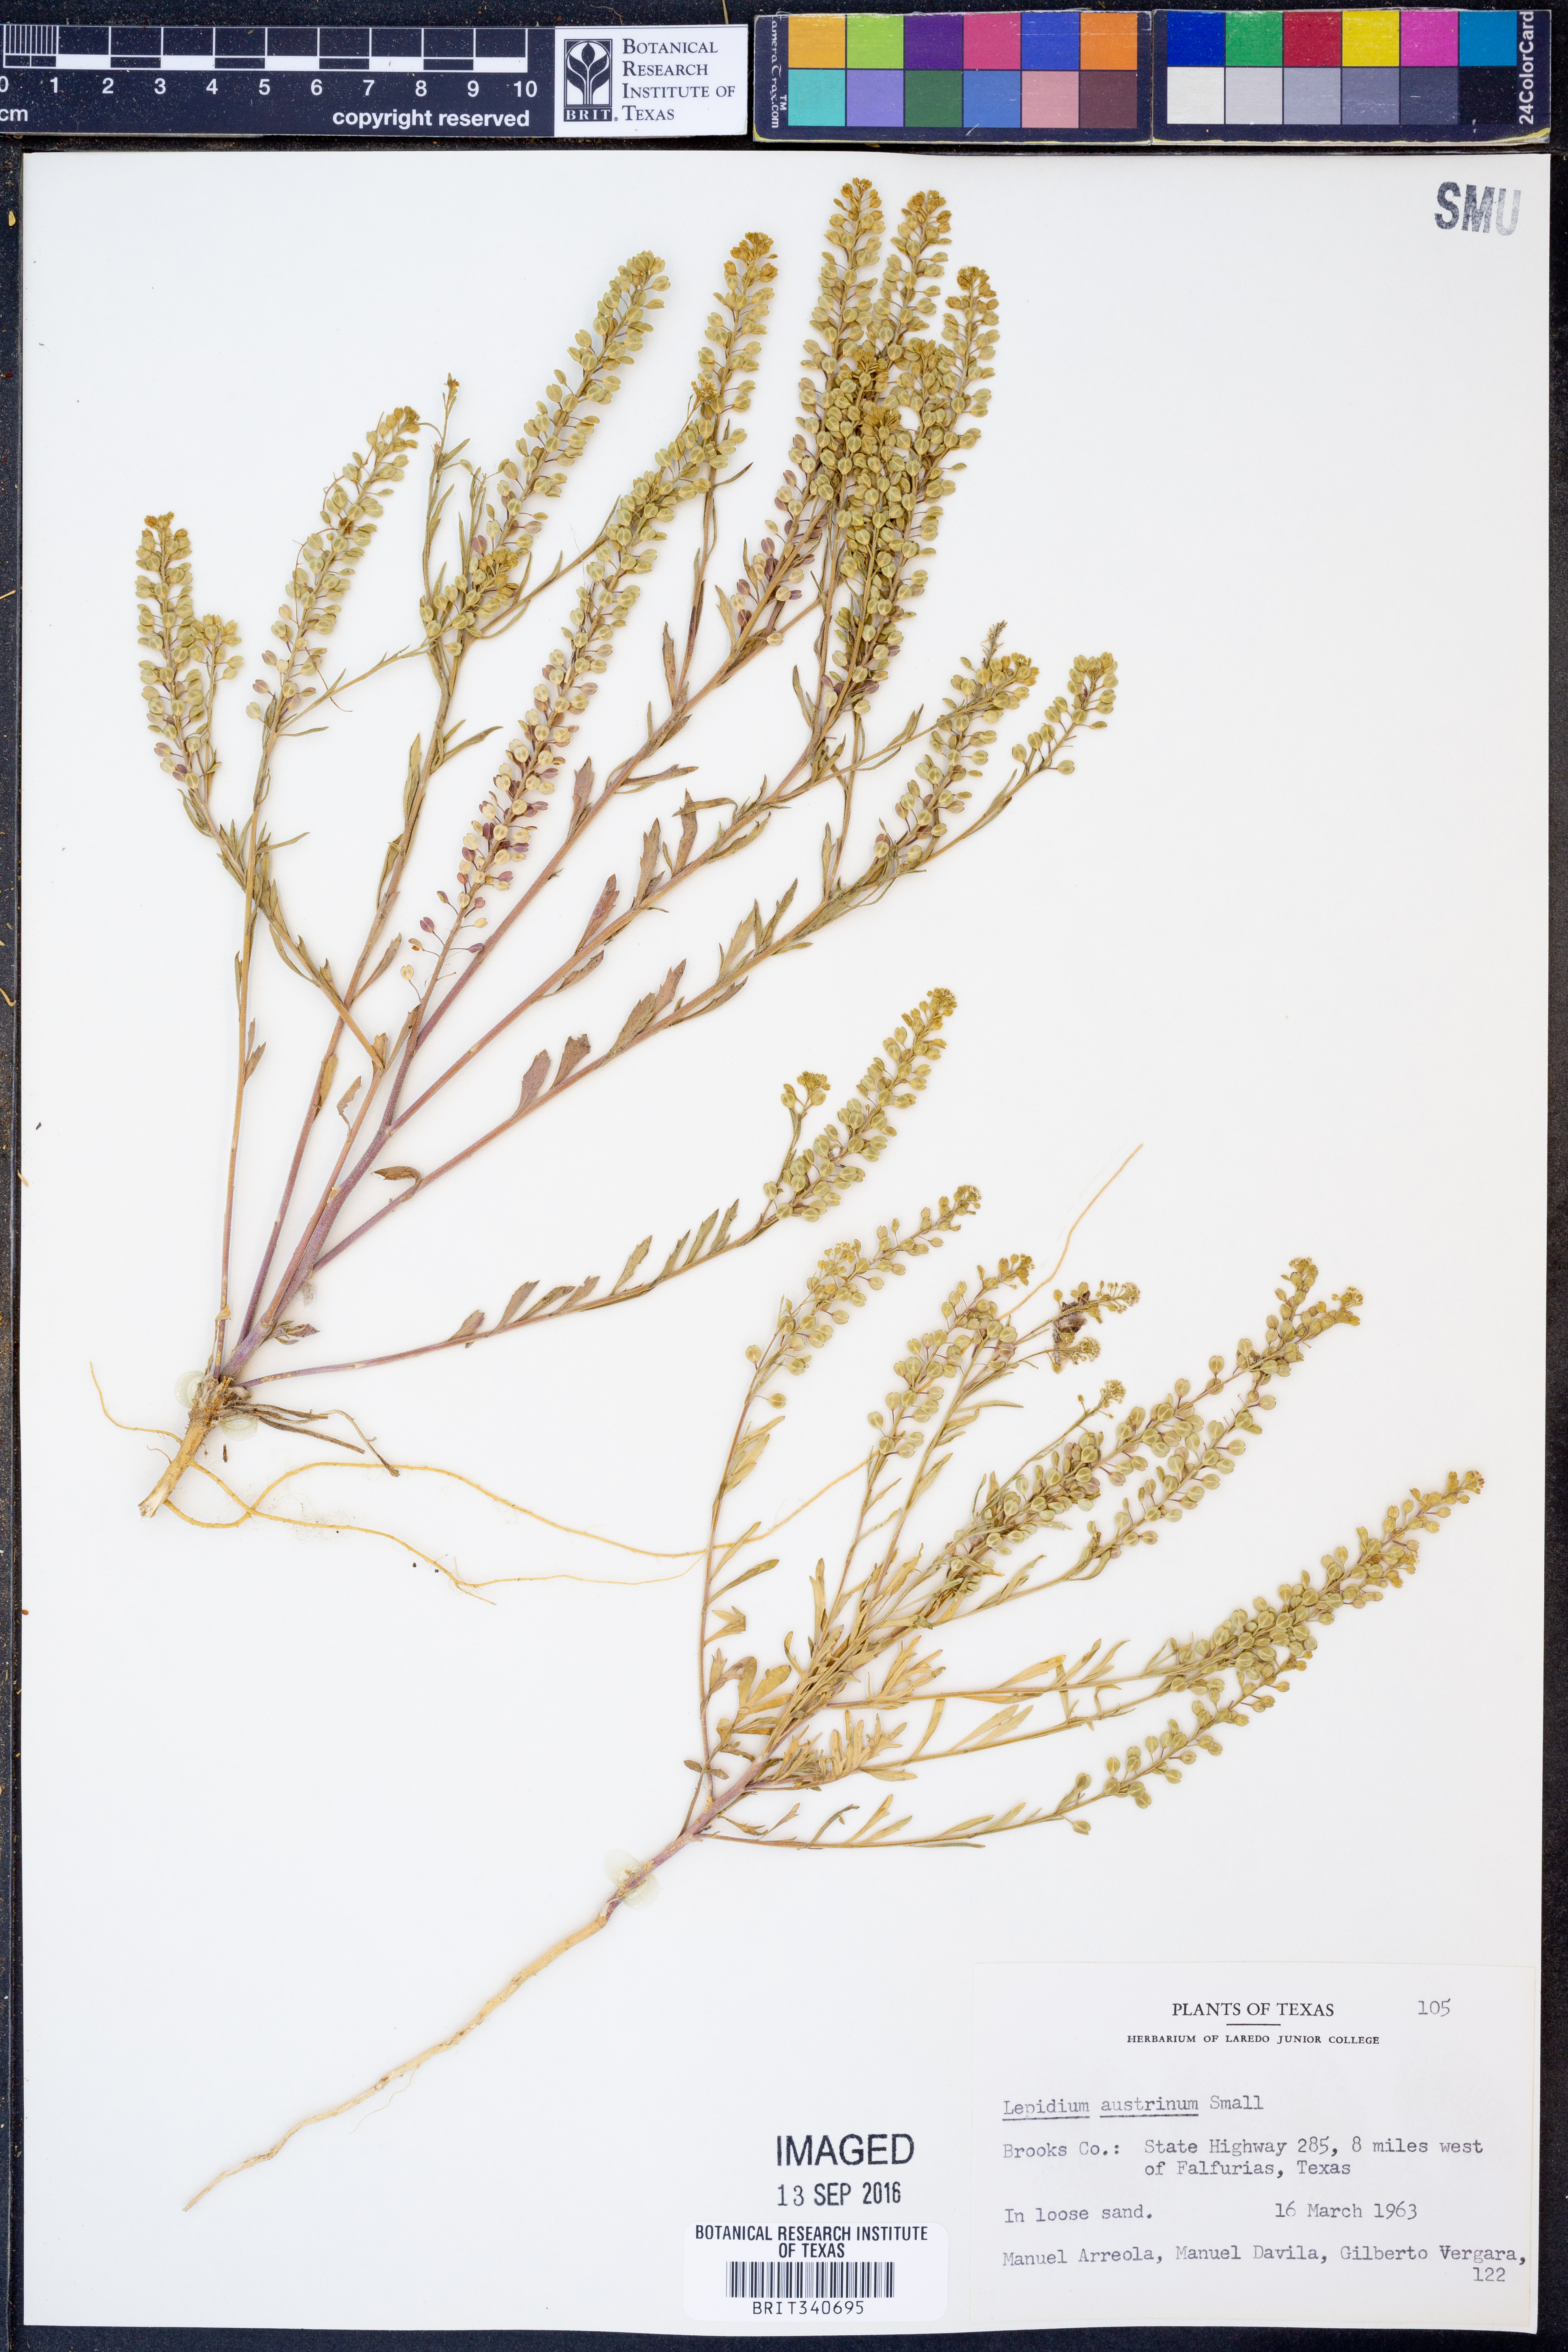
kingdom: Plantae
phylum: Tracheophyta
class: Magnoliopsida
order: Brassicales
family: Brassicaceae
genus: Lepidium
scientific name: Lepidium austrinum
